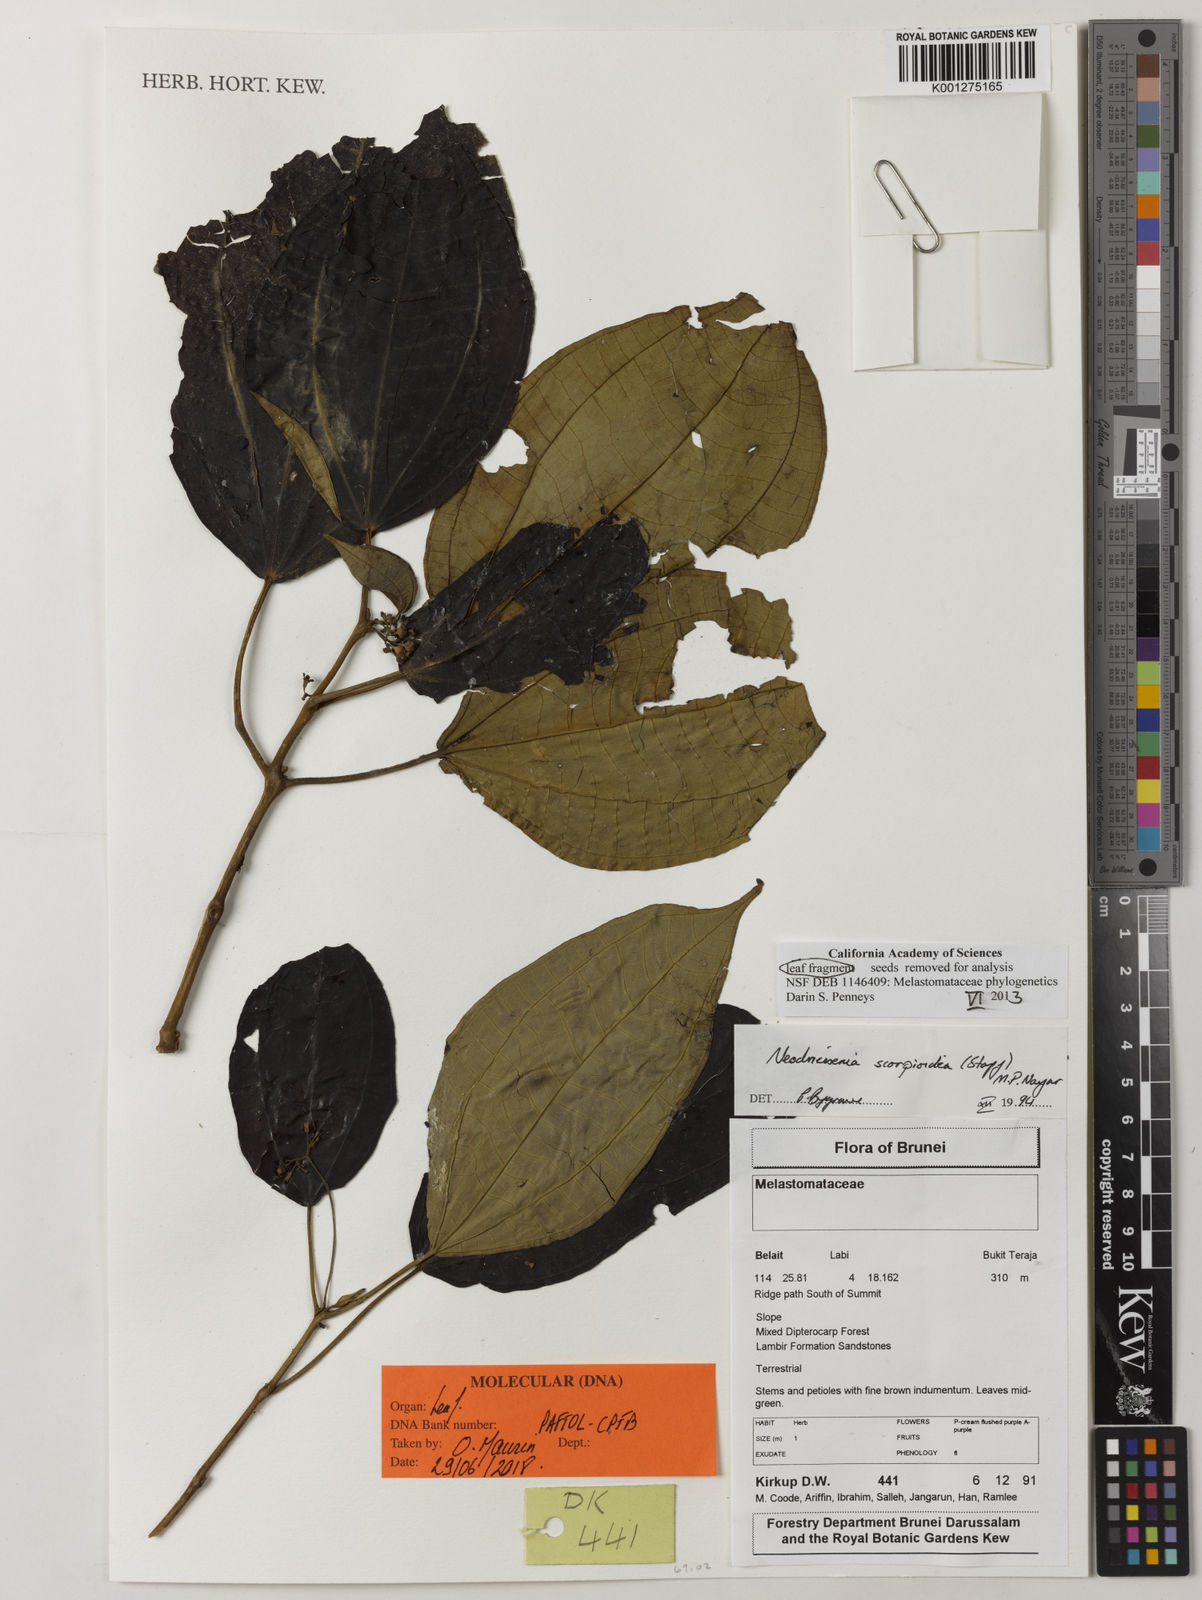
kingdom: Plantae
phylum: Tracheophyta
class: Magnoliopsida
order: Myrtales
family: Melastomataceae
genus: Neodriessenia
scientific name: Neodriessenia scorpioidea
